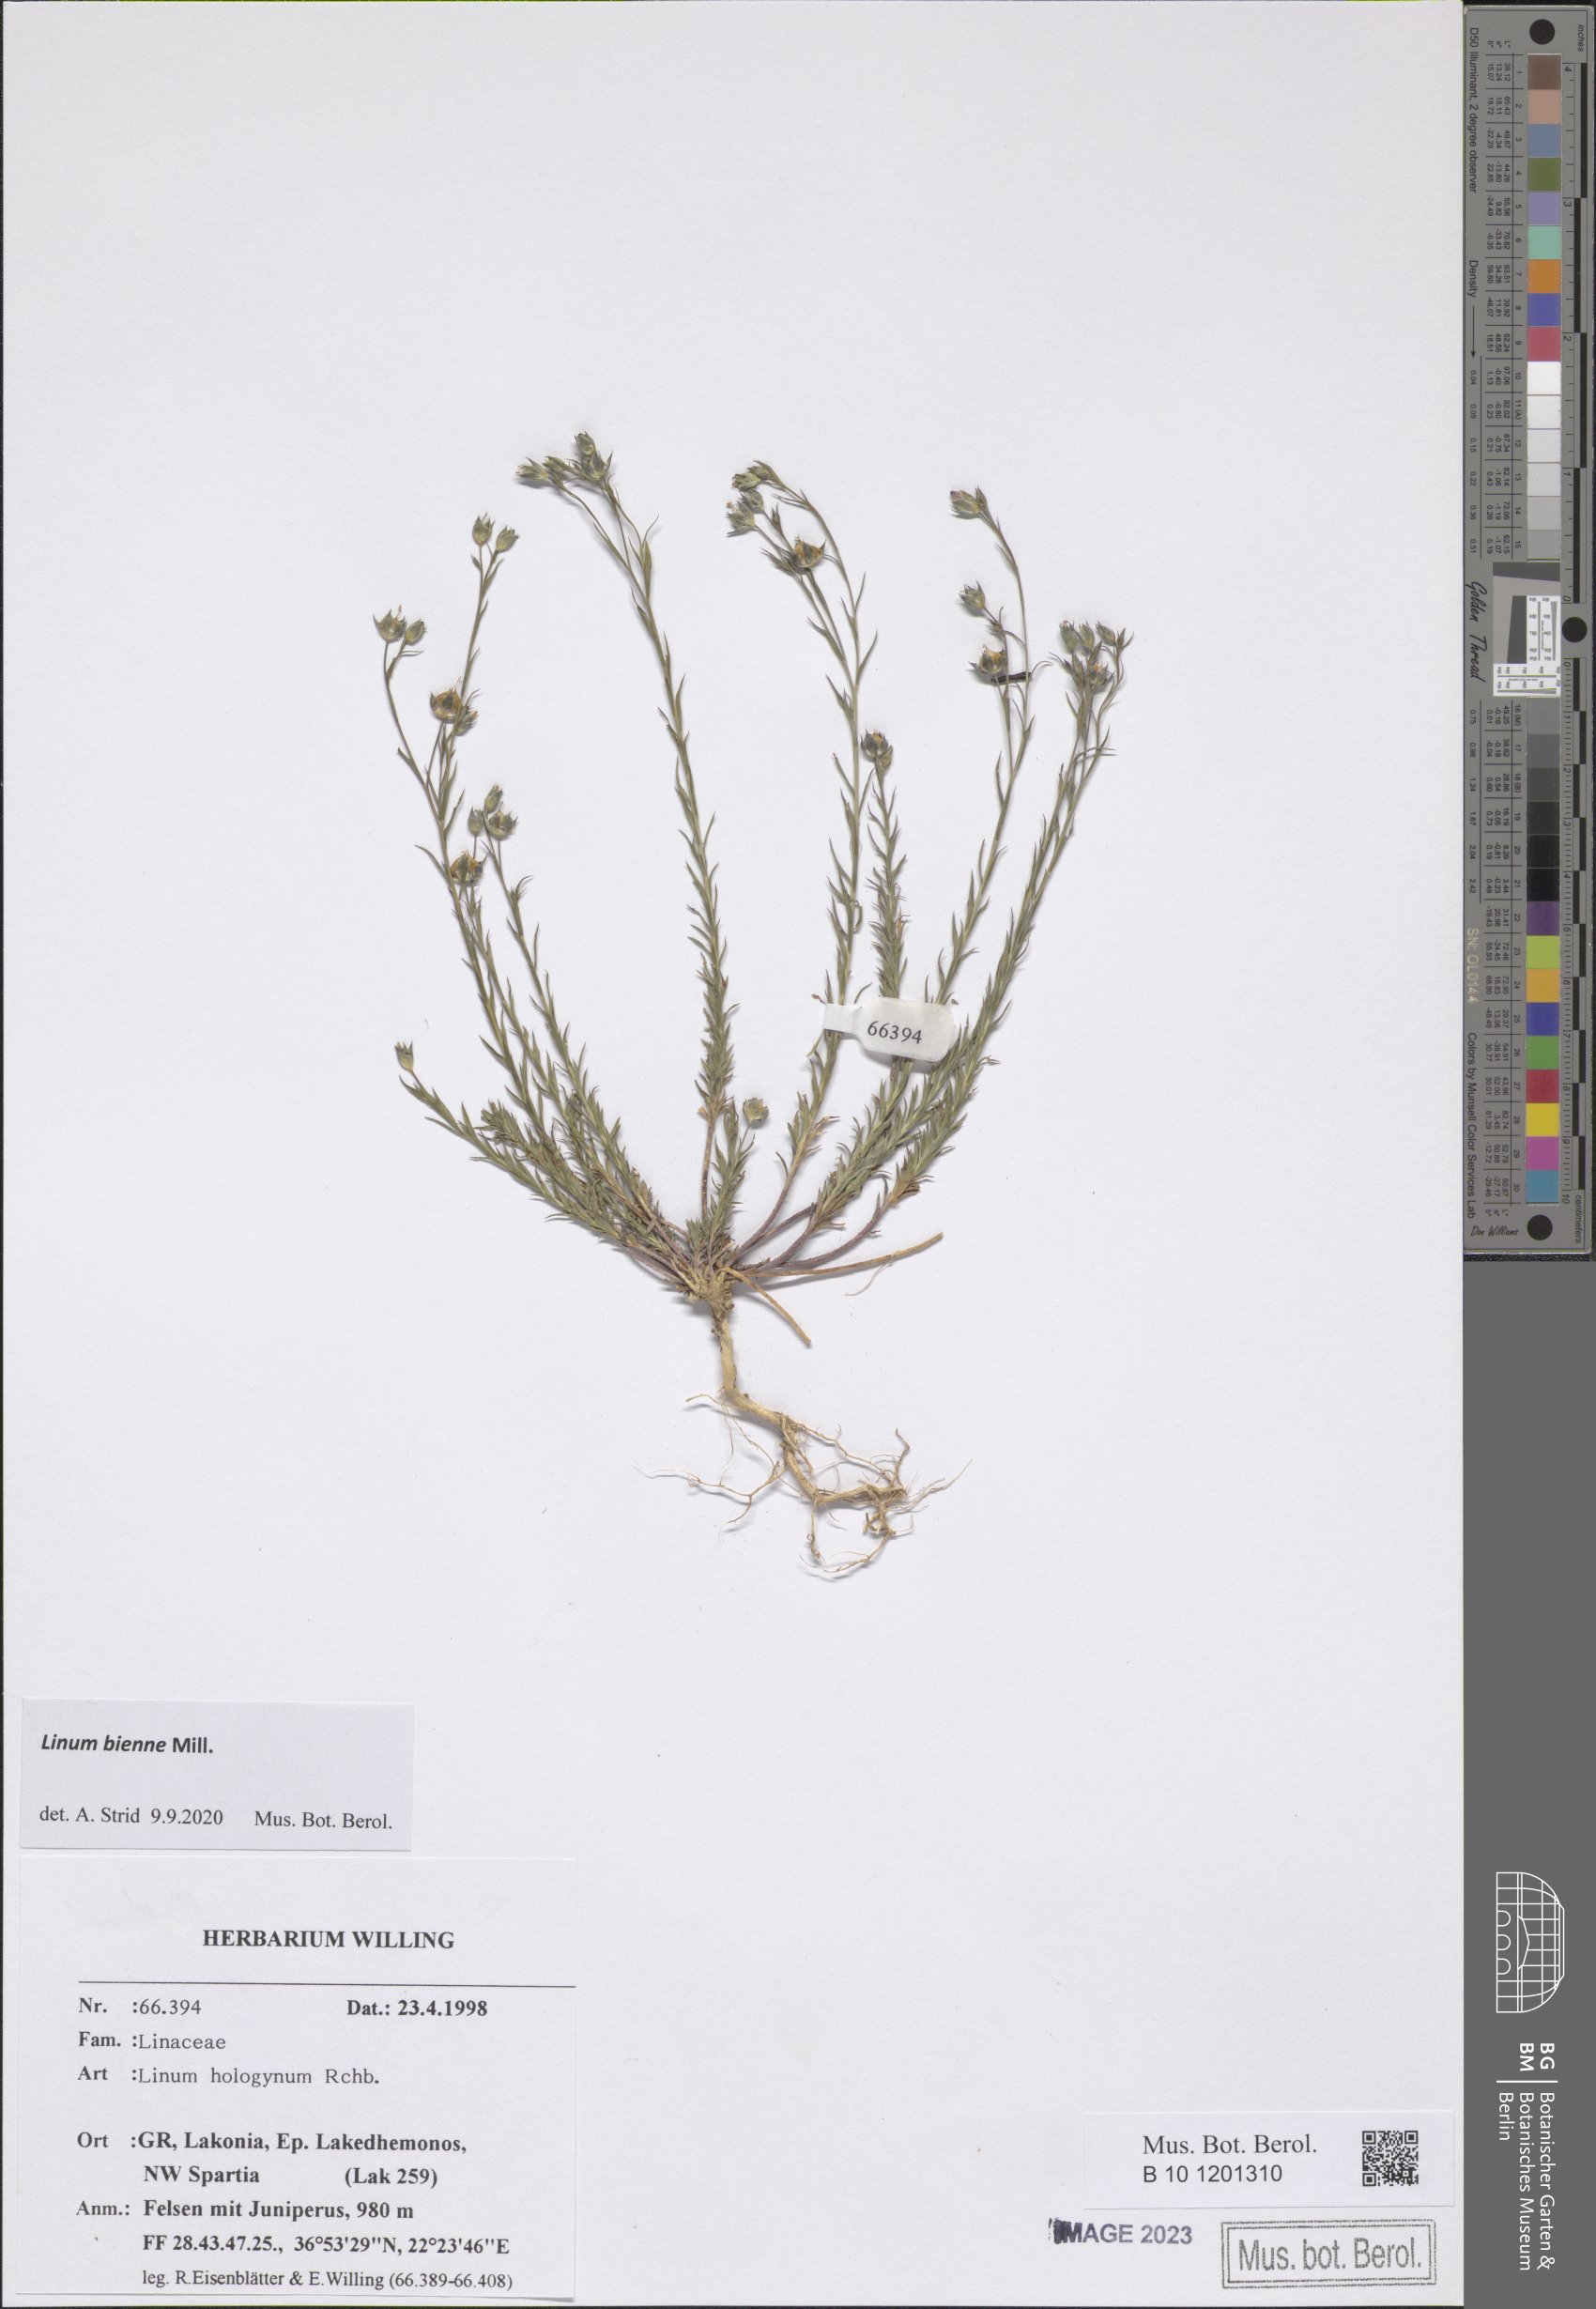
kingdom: Plantae
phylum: Tracheophyta
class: Magnoliopsida
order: Malpighiales
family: Linaceae
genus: Linum
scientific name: Linum bienne
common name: Pale flax
